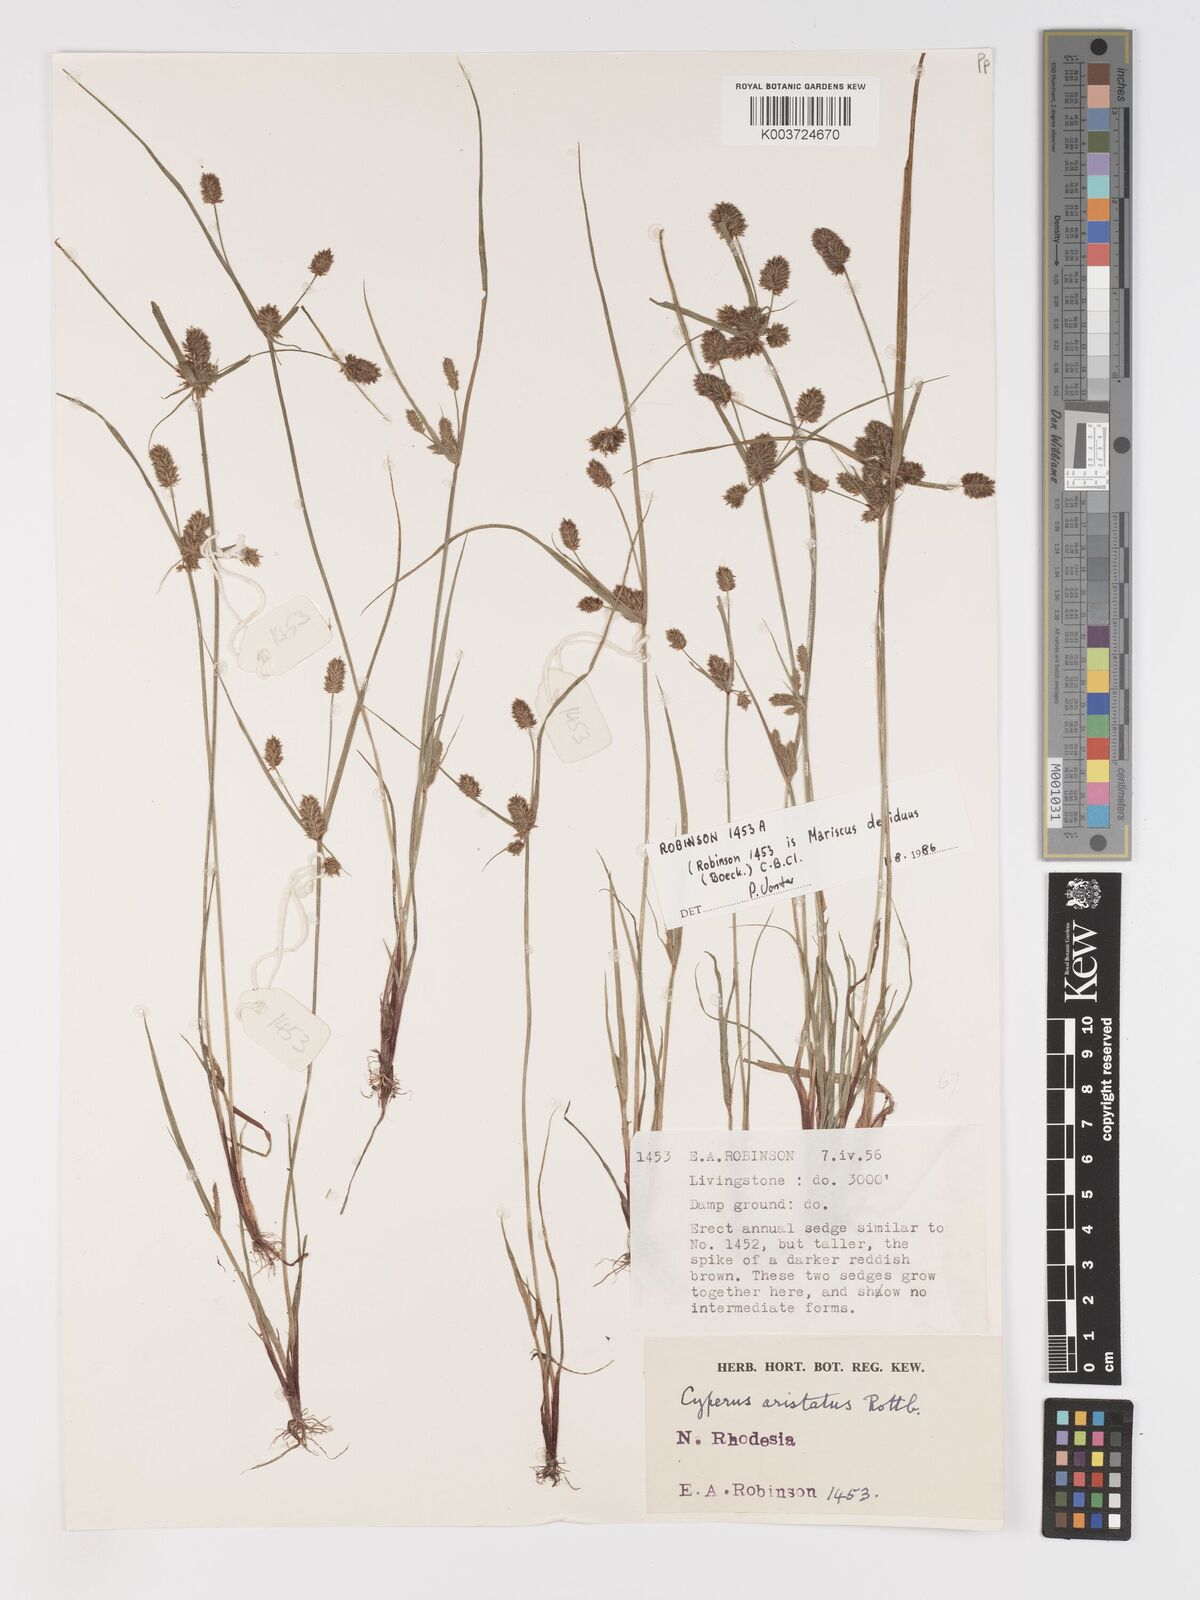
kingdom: Plantae
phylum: Tracheophyta
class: Liliopsida
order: Poales
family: Cyperaceae
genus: Cyperus
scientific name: Cyperus squarrosus
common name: Awned cyperus
